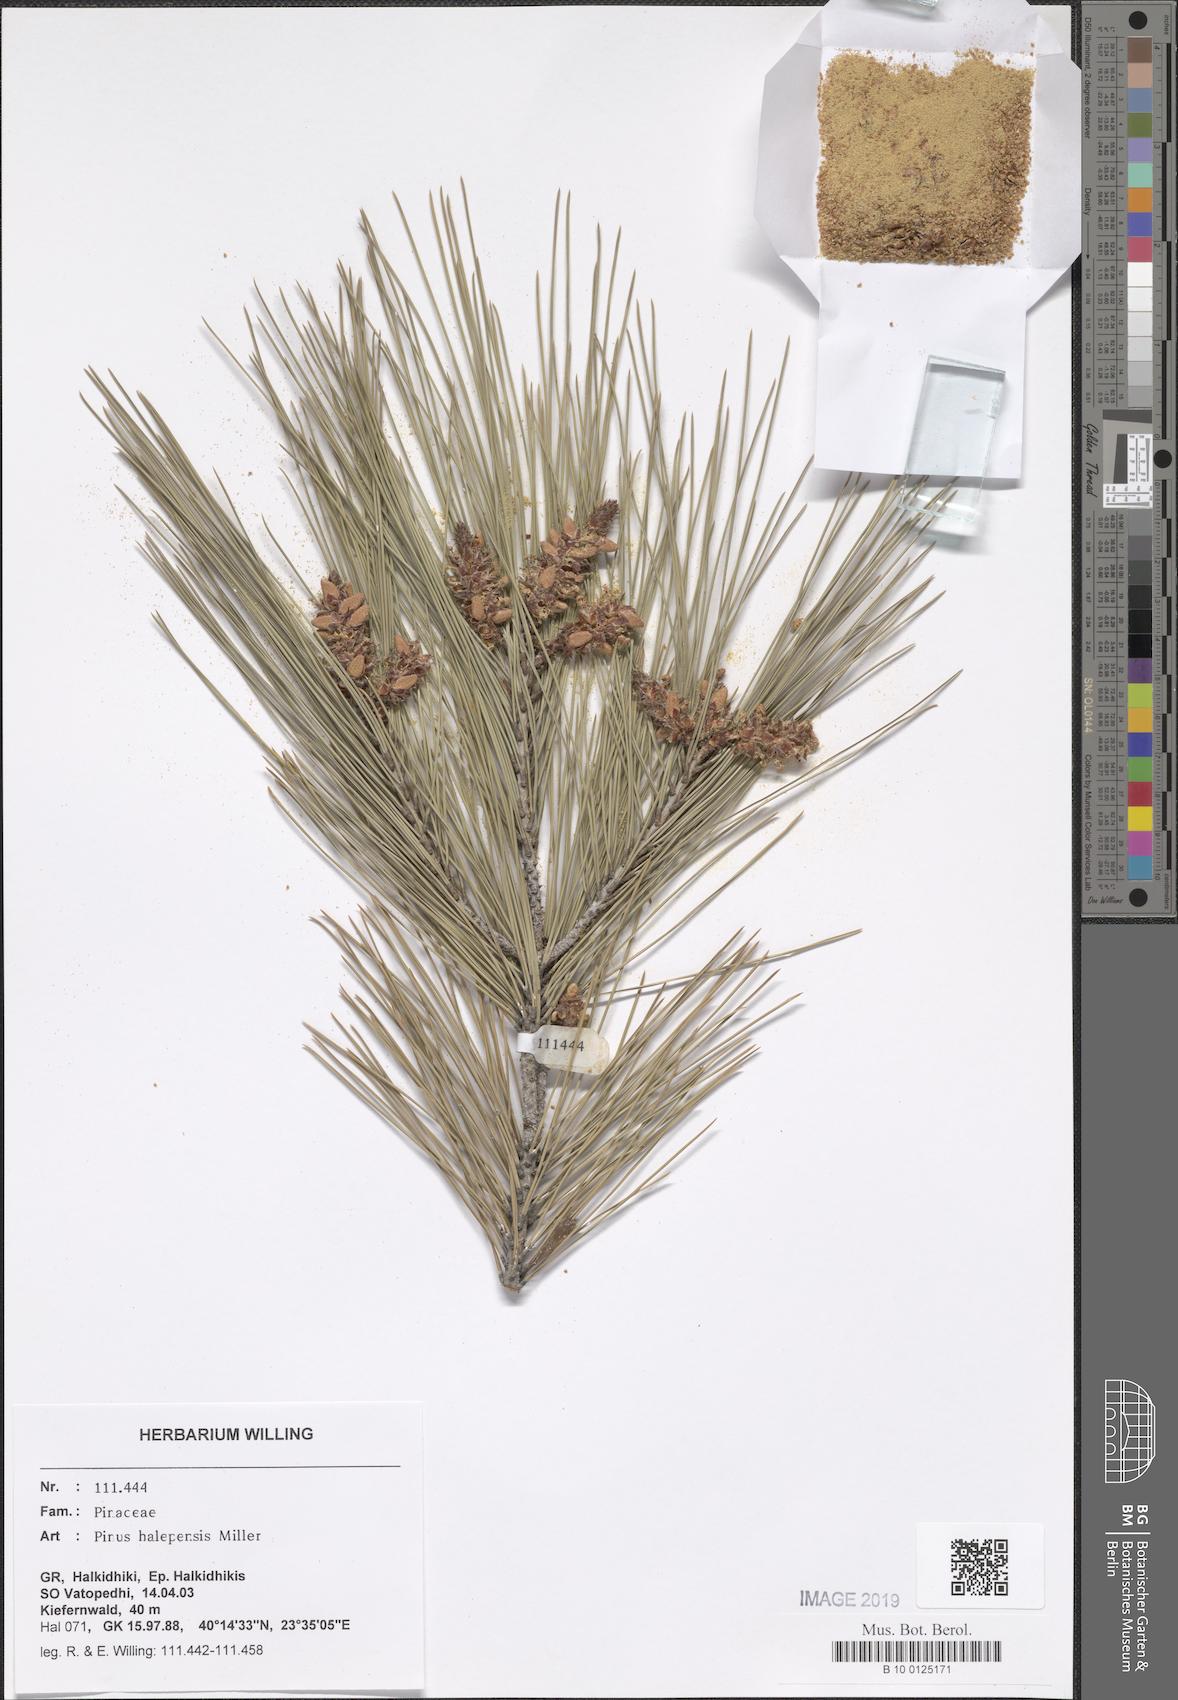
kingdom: Plantae
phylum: Tracheophyta
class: Pinopsida
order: Pinales
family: Pinaceae
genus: Pinus
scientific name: Pinus halepensis
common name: Aleppo pine
